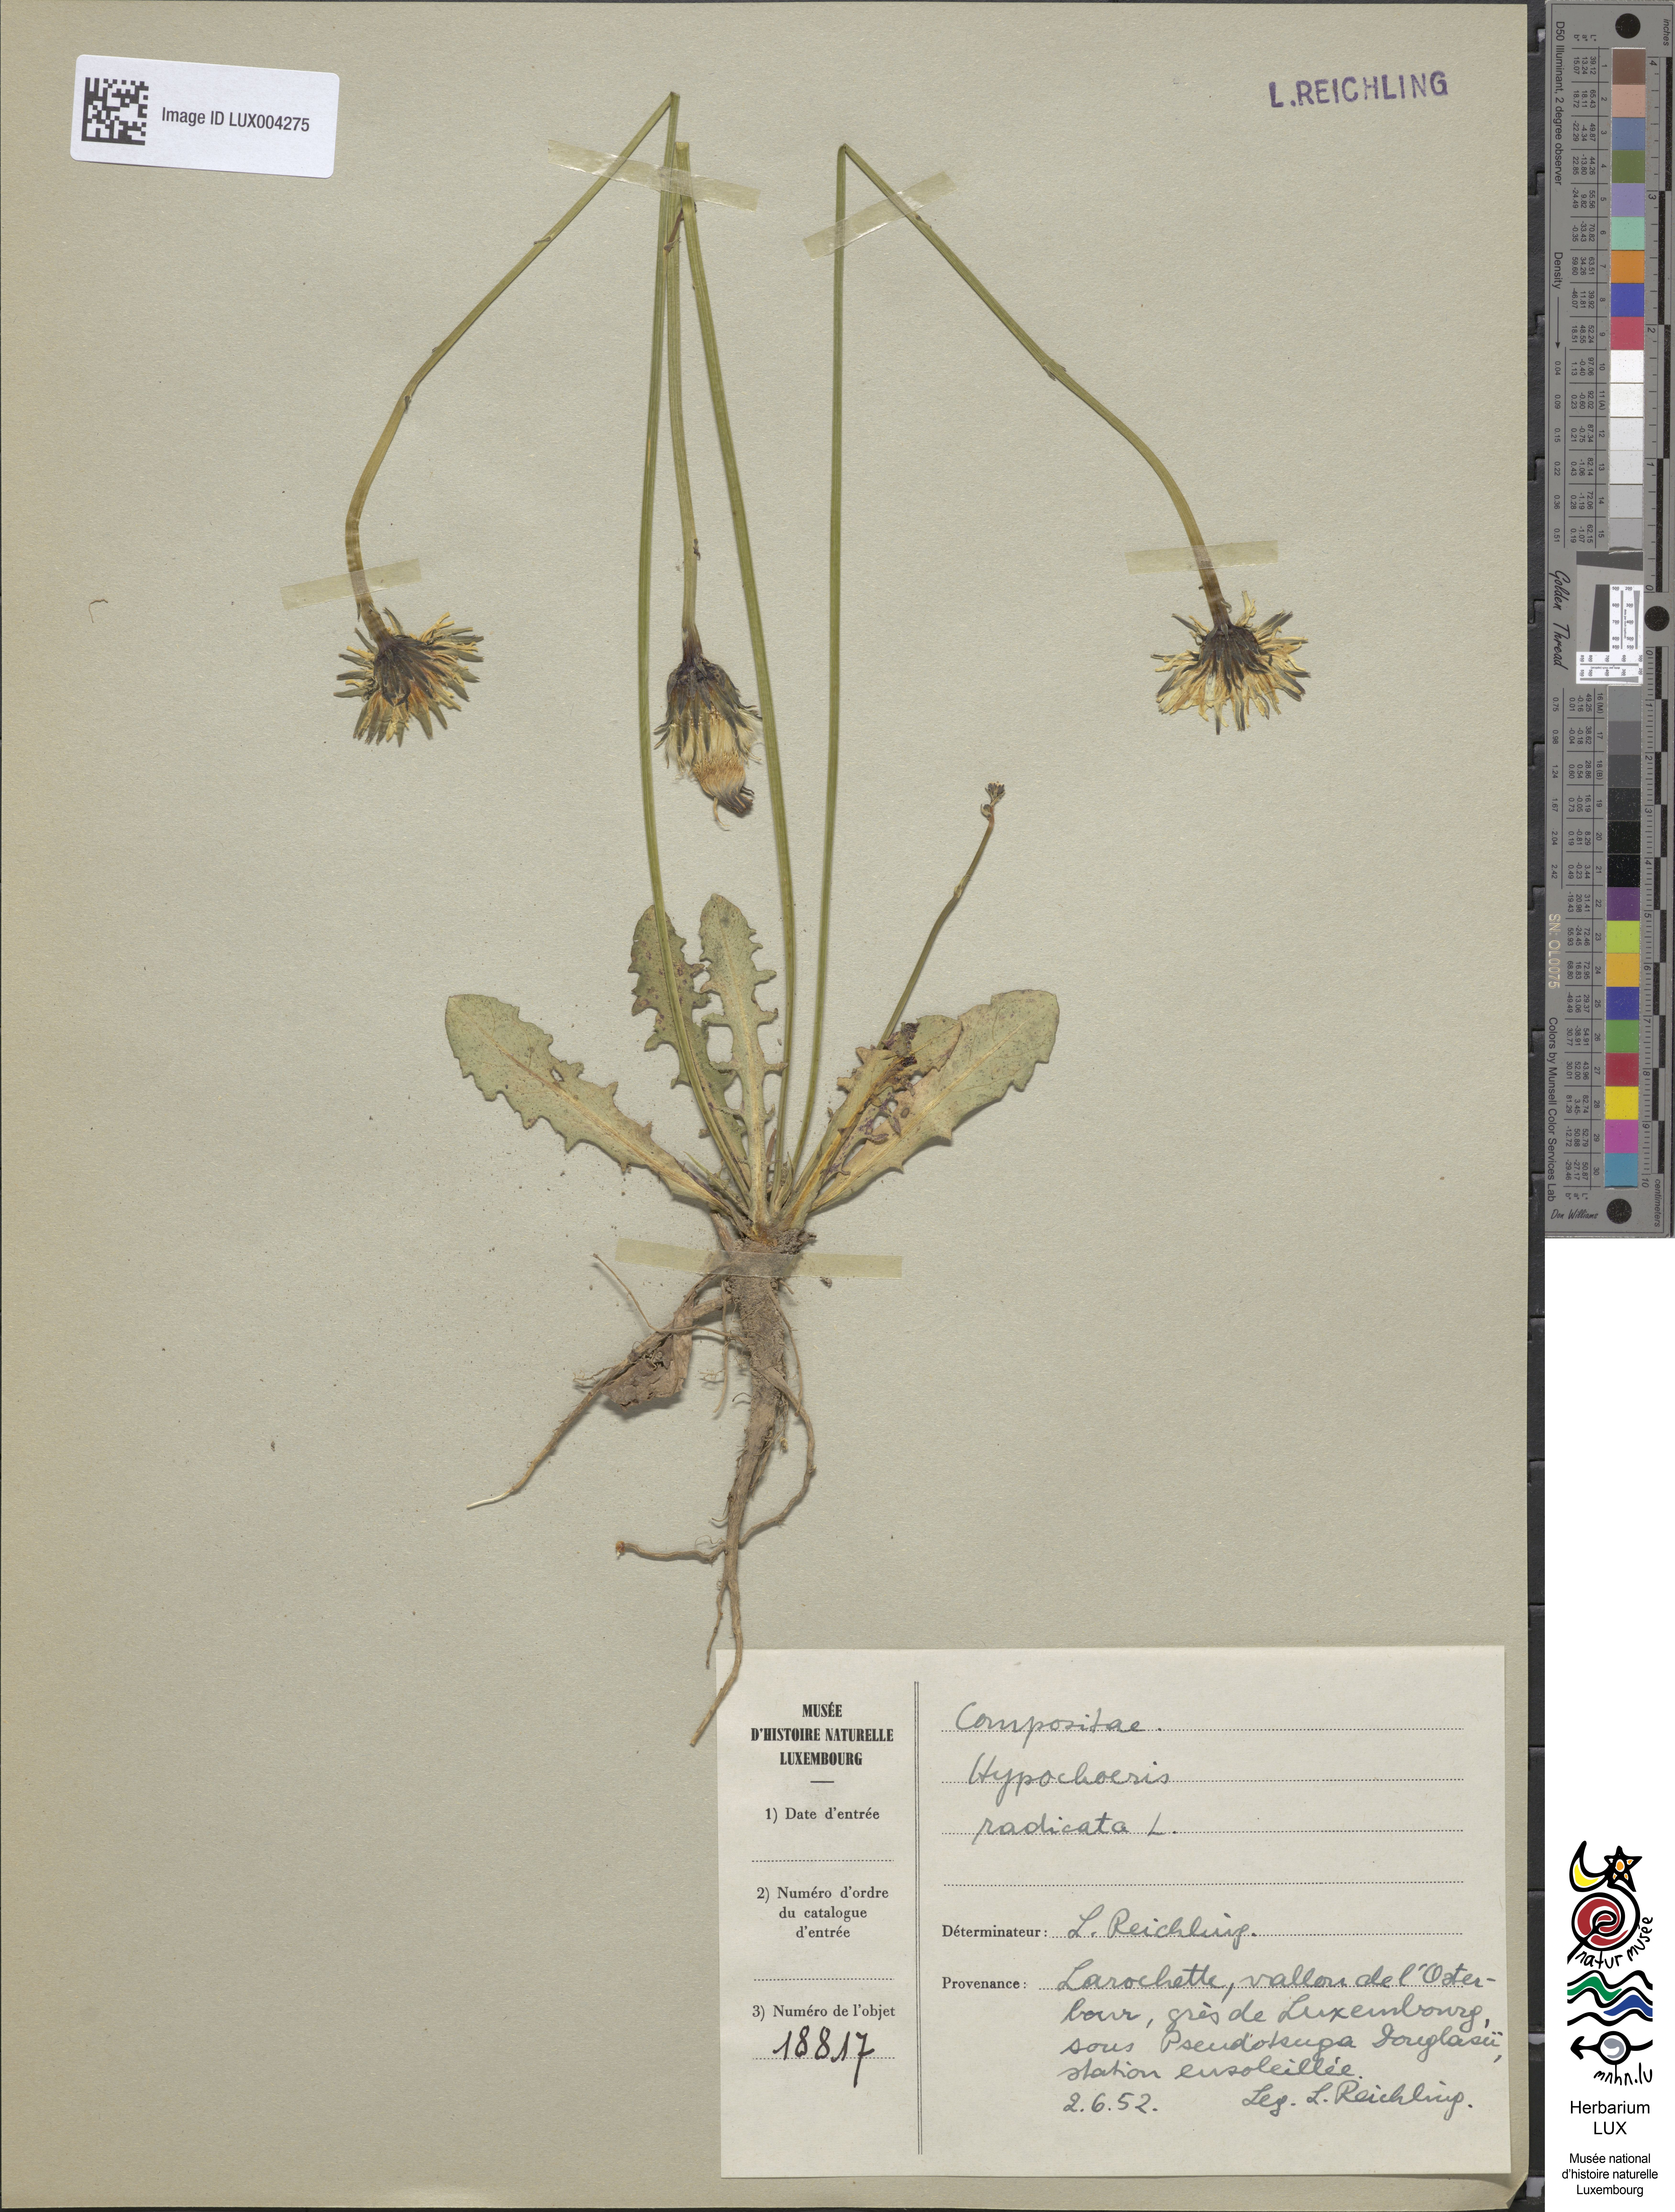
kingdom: Plantae
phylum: Tracheophyta
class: Magnoliopsida
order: Asterales
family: Asteraceae
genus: Hypochoeris
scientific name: Hypochoeris radicata
